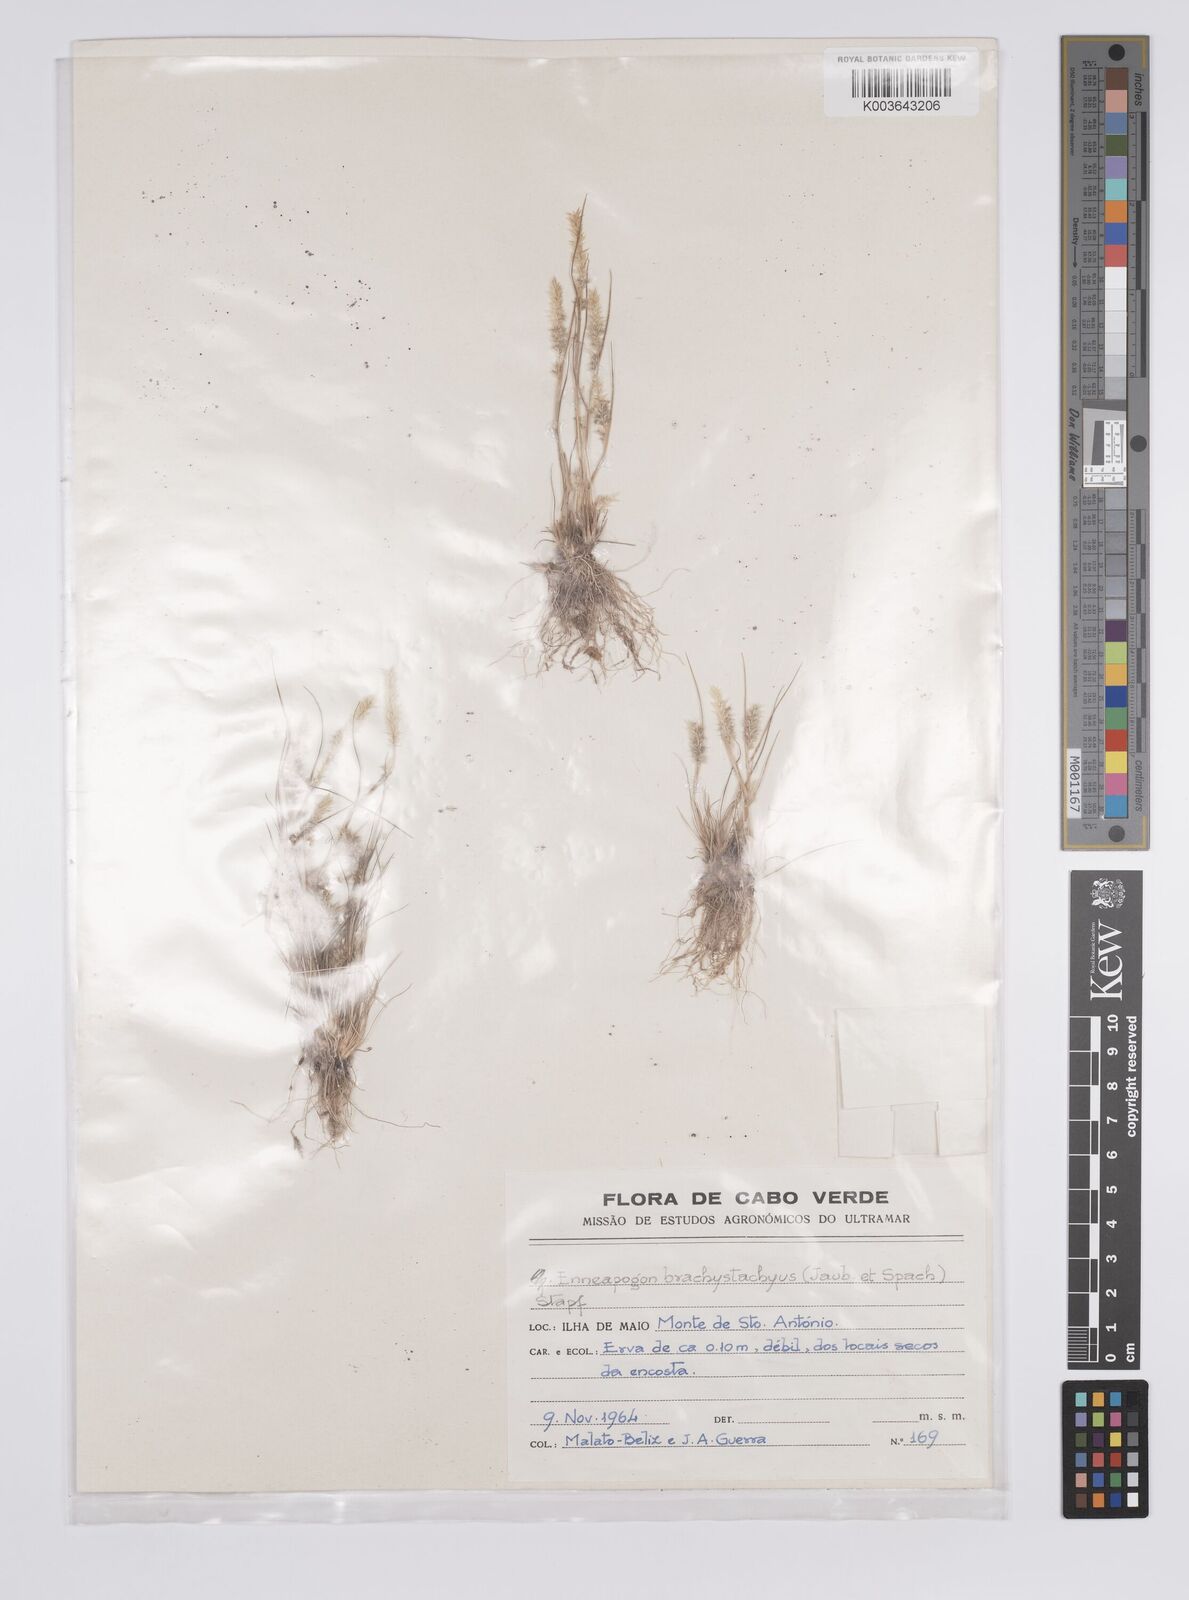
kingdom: Plantae
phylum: Tracheophyta
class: Liliopsida
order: Poales
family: Poaceae
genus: Enneapogon
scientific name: Enneapogon desvauxii
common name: Feather pappus grass
